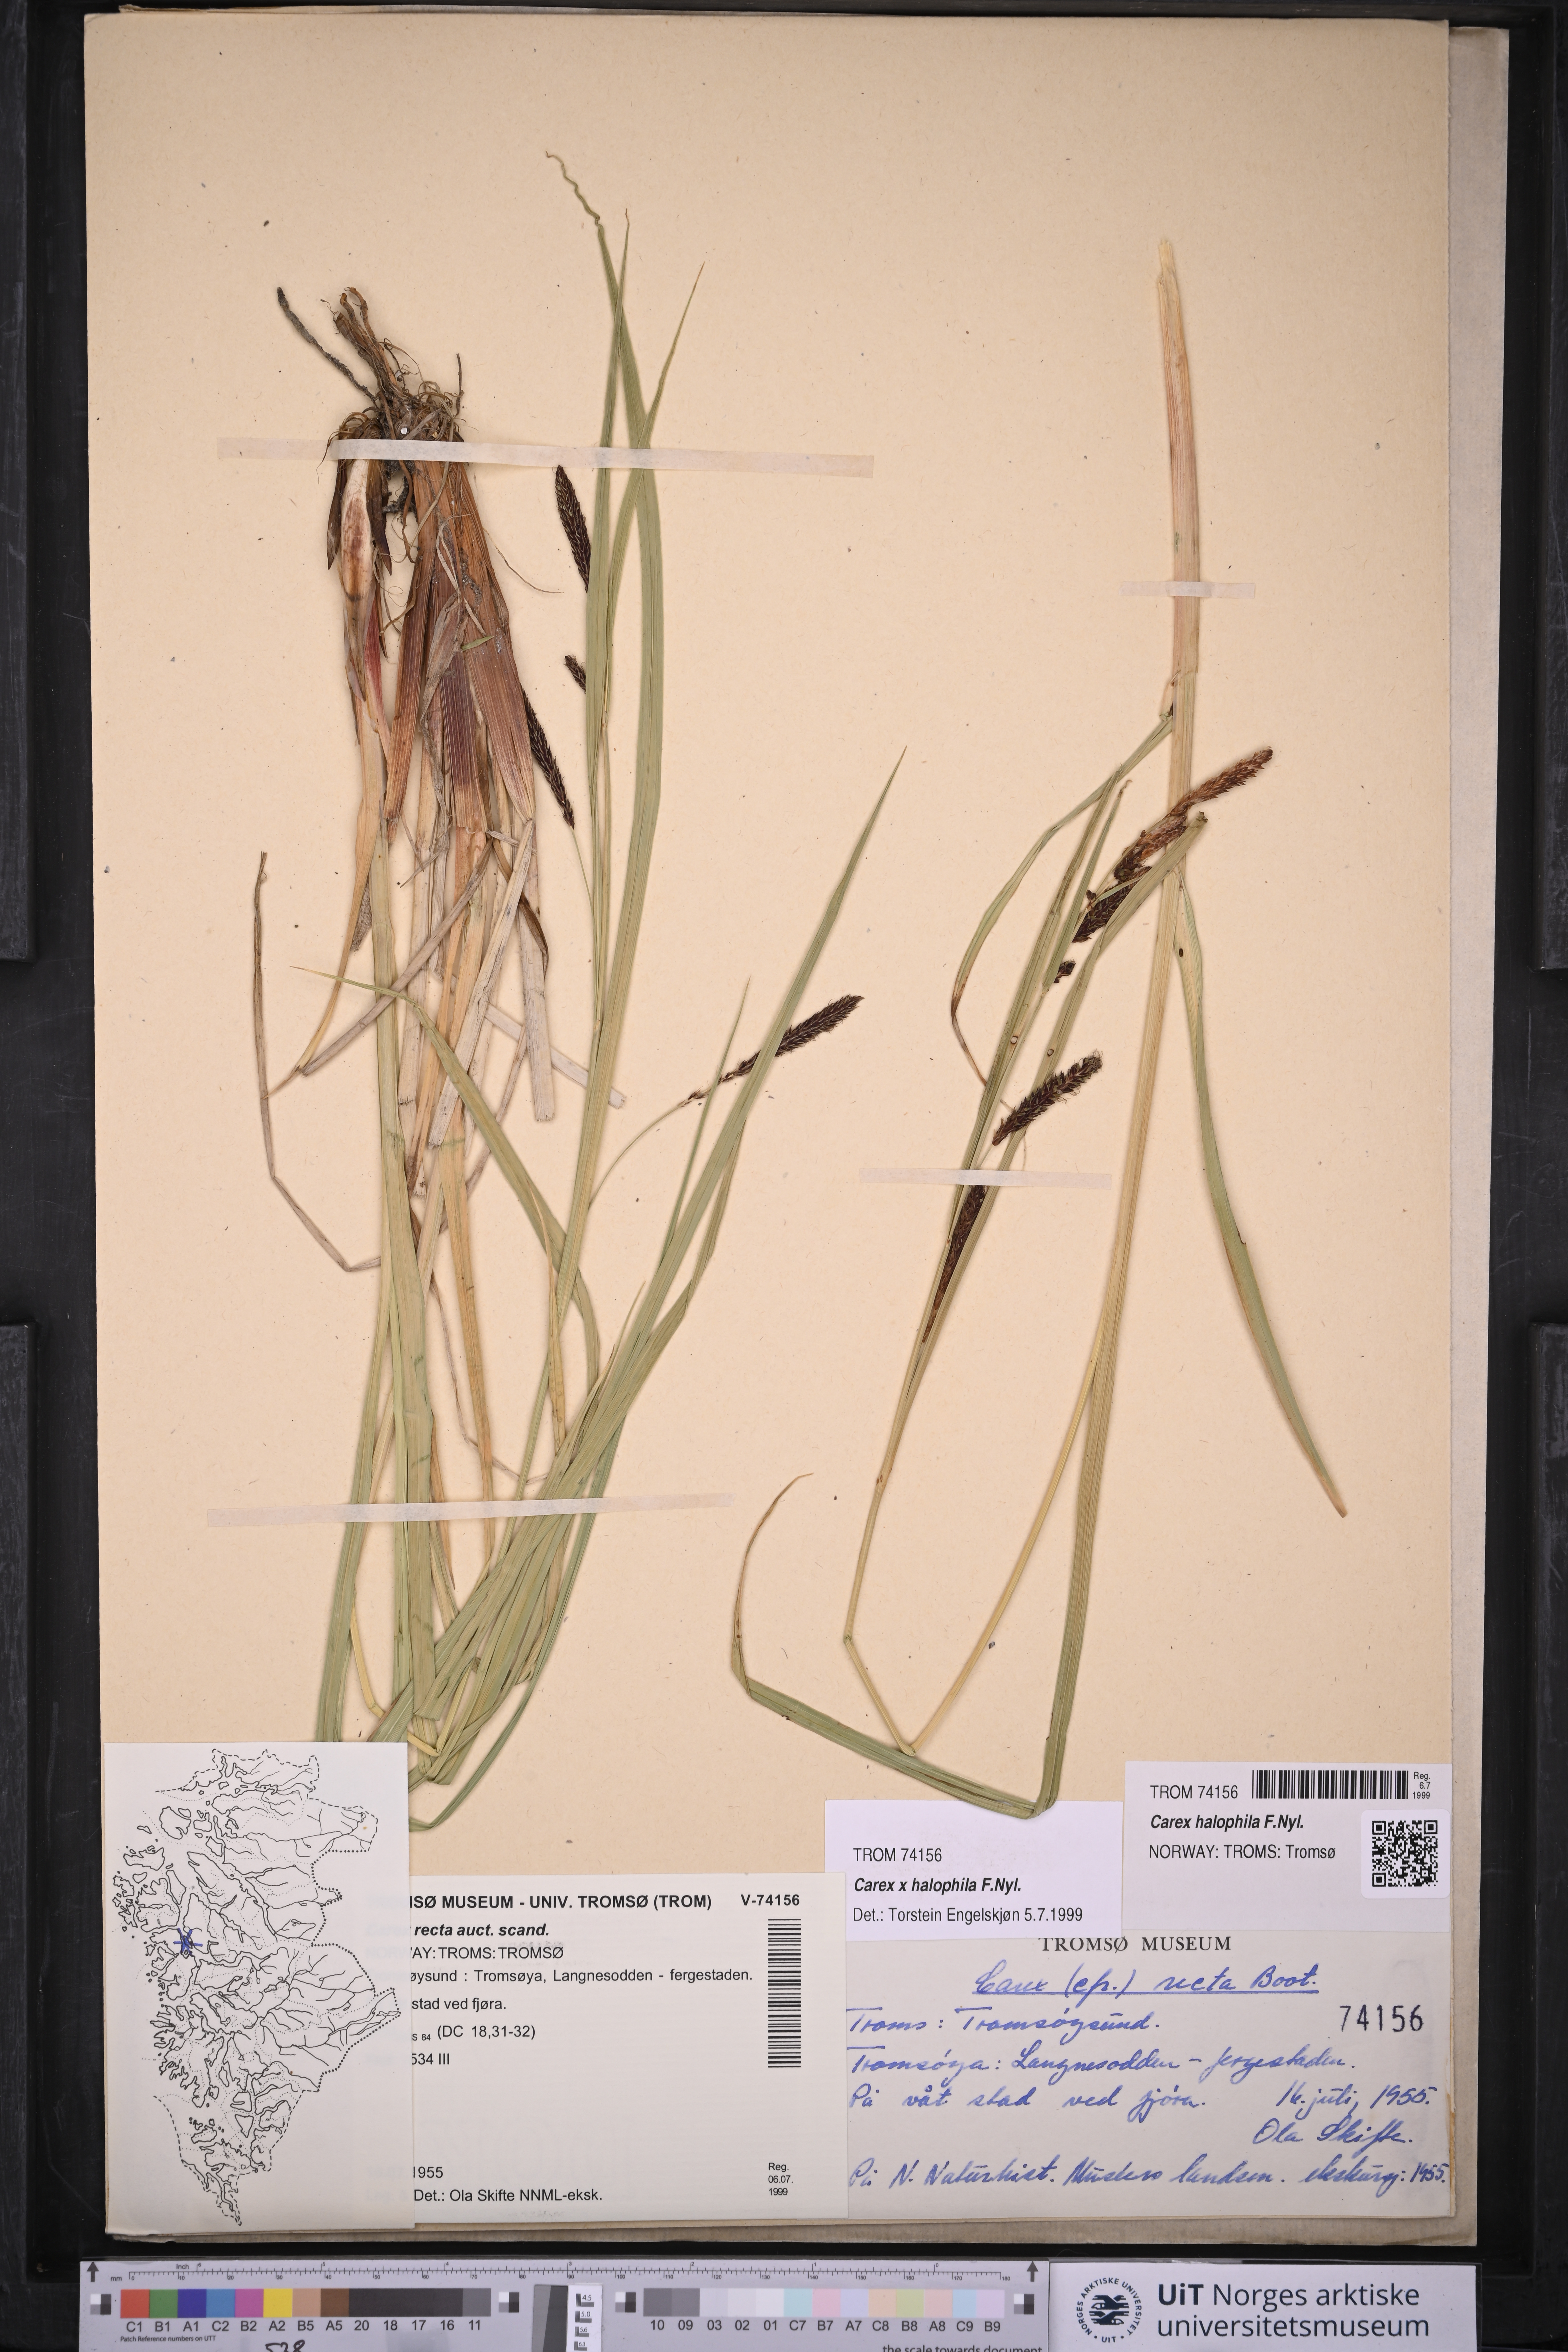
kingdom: Plantae
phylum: Tracheophyta
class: Liliopsida
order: Poales
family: Cyperaceae
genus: Carex
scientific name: Carex halophila
